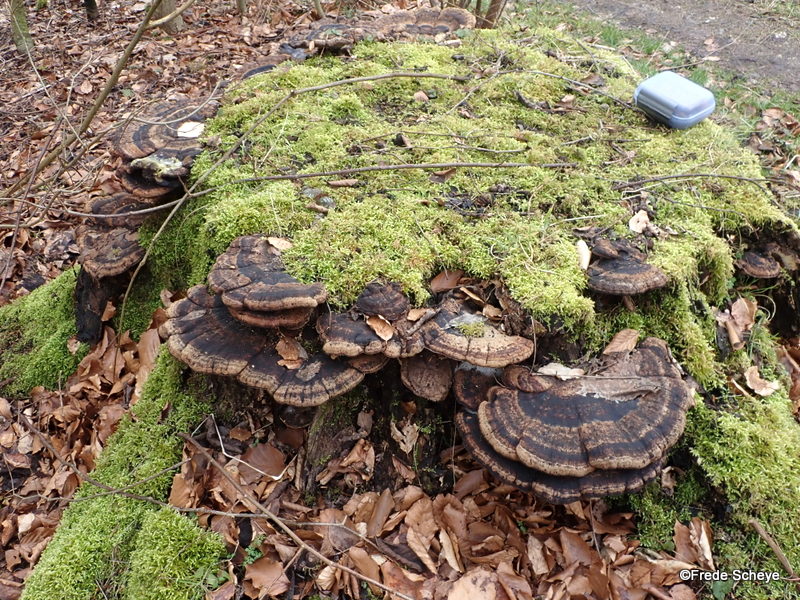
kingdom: Fungi
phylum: Basidiomycota
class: Agaricomycetes
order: Polyporales
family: Ischnodermataceae
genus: Ischnoderma
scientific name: Ischnoderma resinosum
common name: løv-tjæreporesvamp
